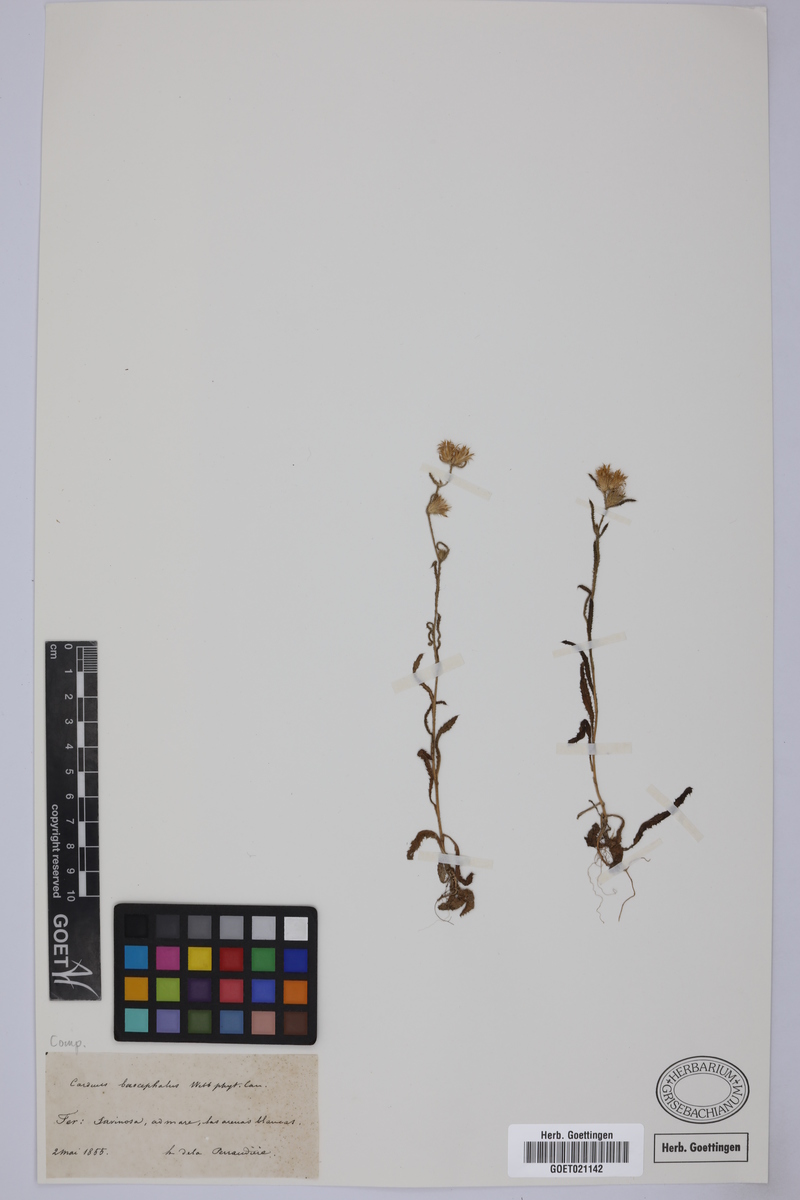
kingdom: Plantae
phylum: Tracheophyta
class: Magnoliopsida
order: Asterales
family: Asteraceae
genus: Carduus
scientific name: Carduus baeocephalus
